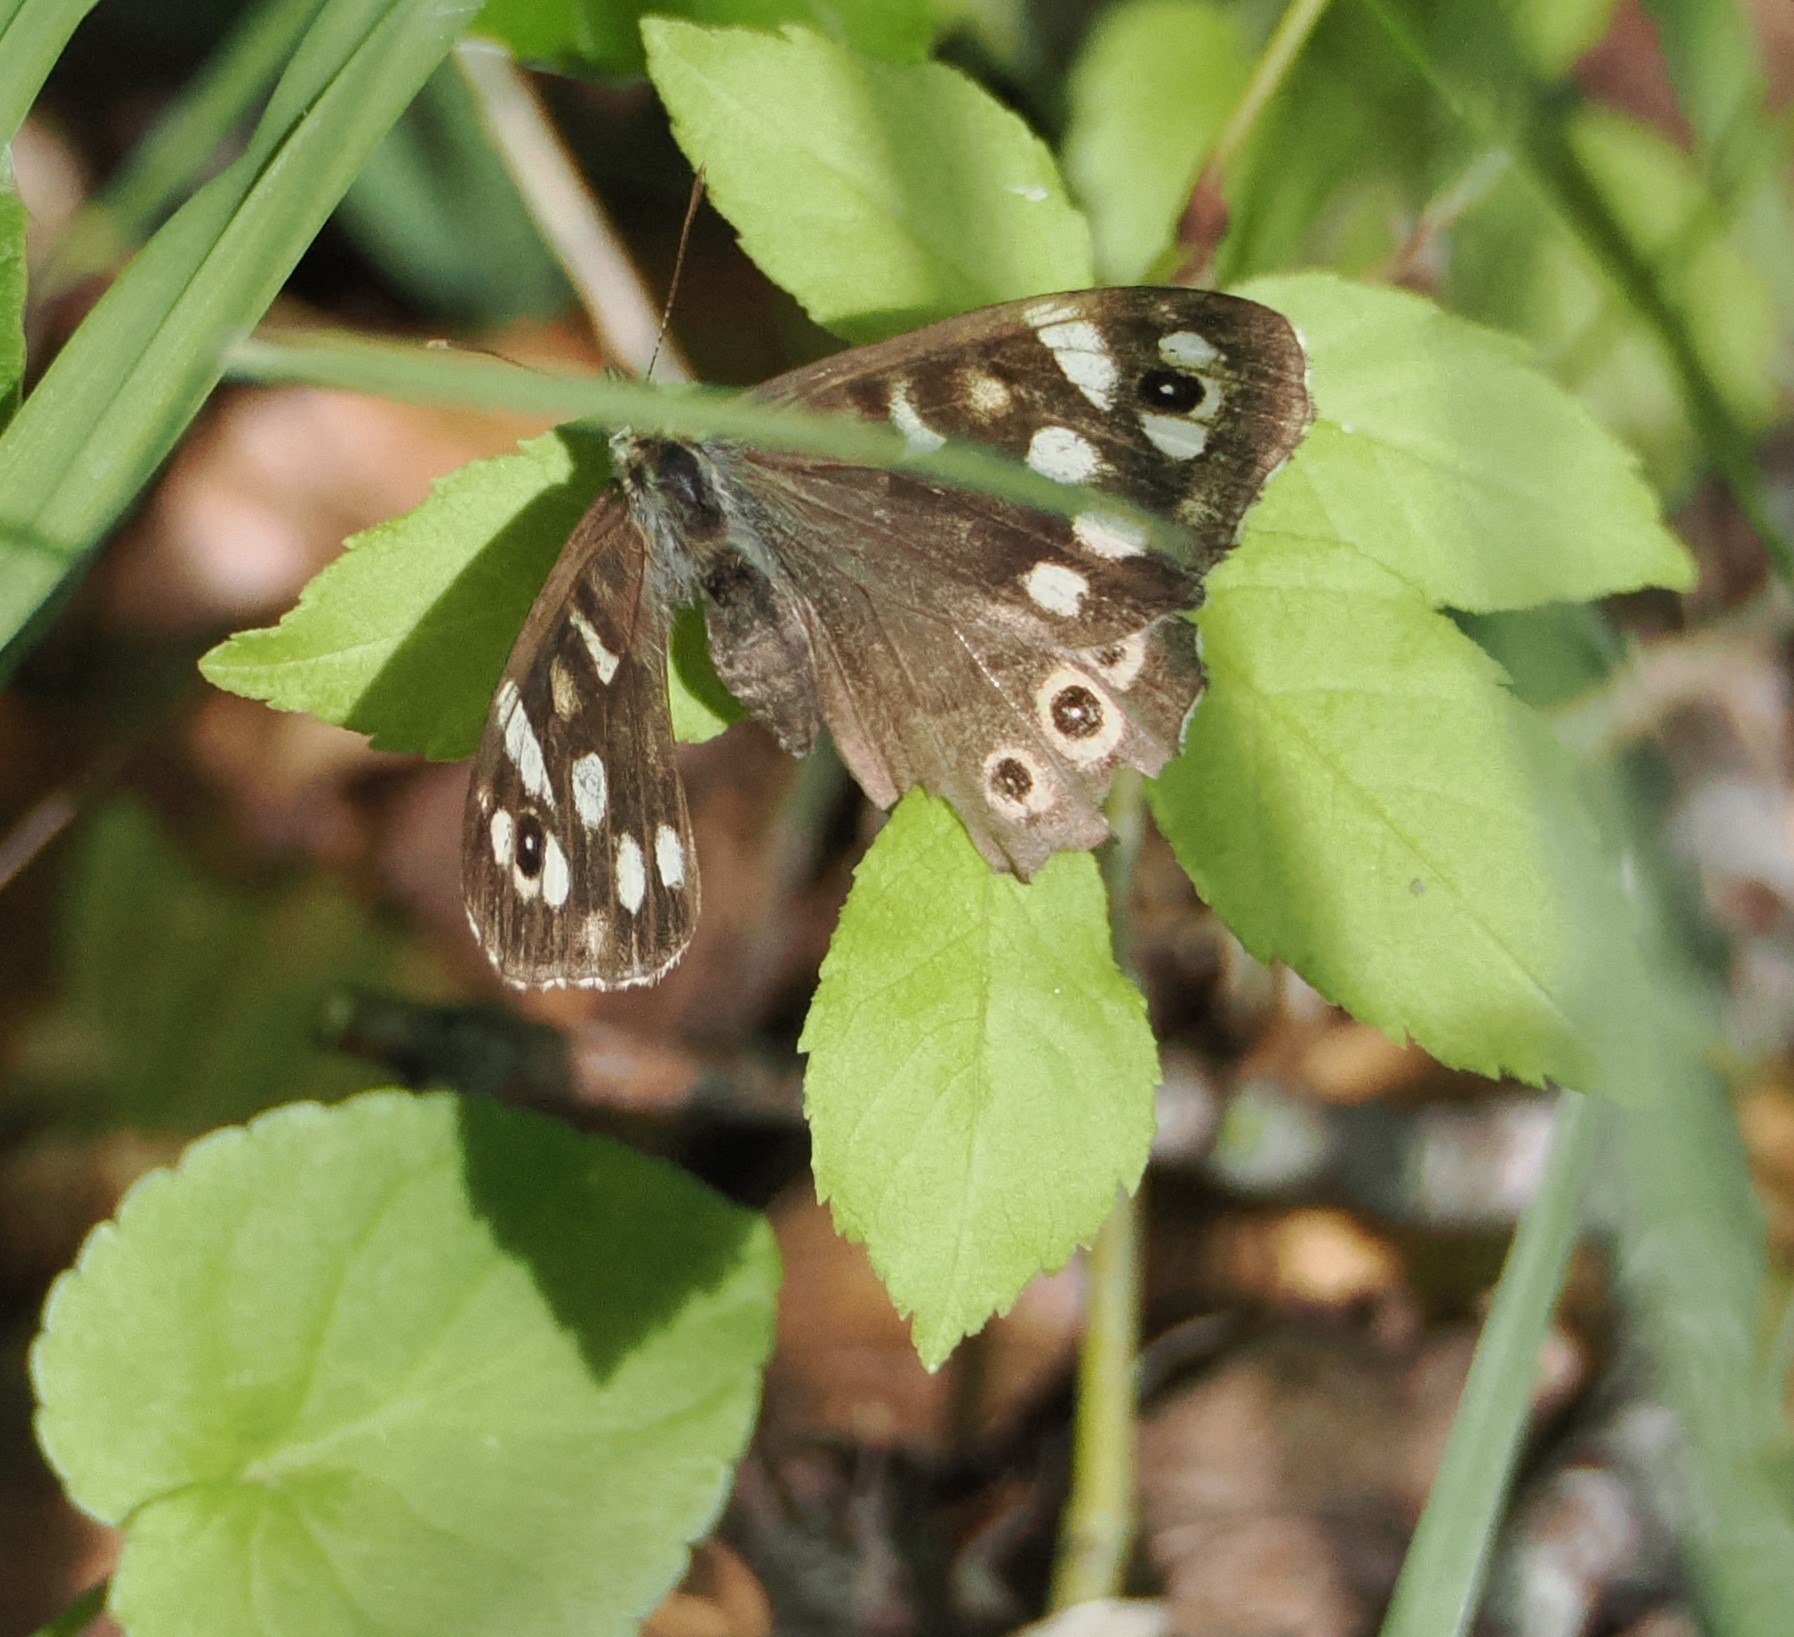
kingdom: Animalia
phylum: Arthropoda
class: Insecta
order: Lepidoptera
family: Nymphalidae
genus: Pararge
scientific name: Pararge aegeria
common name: Skovrandøje
